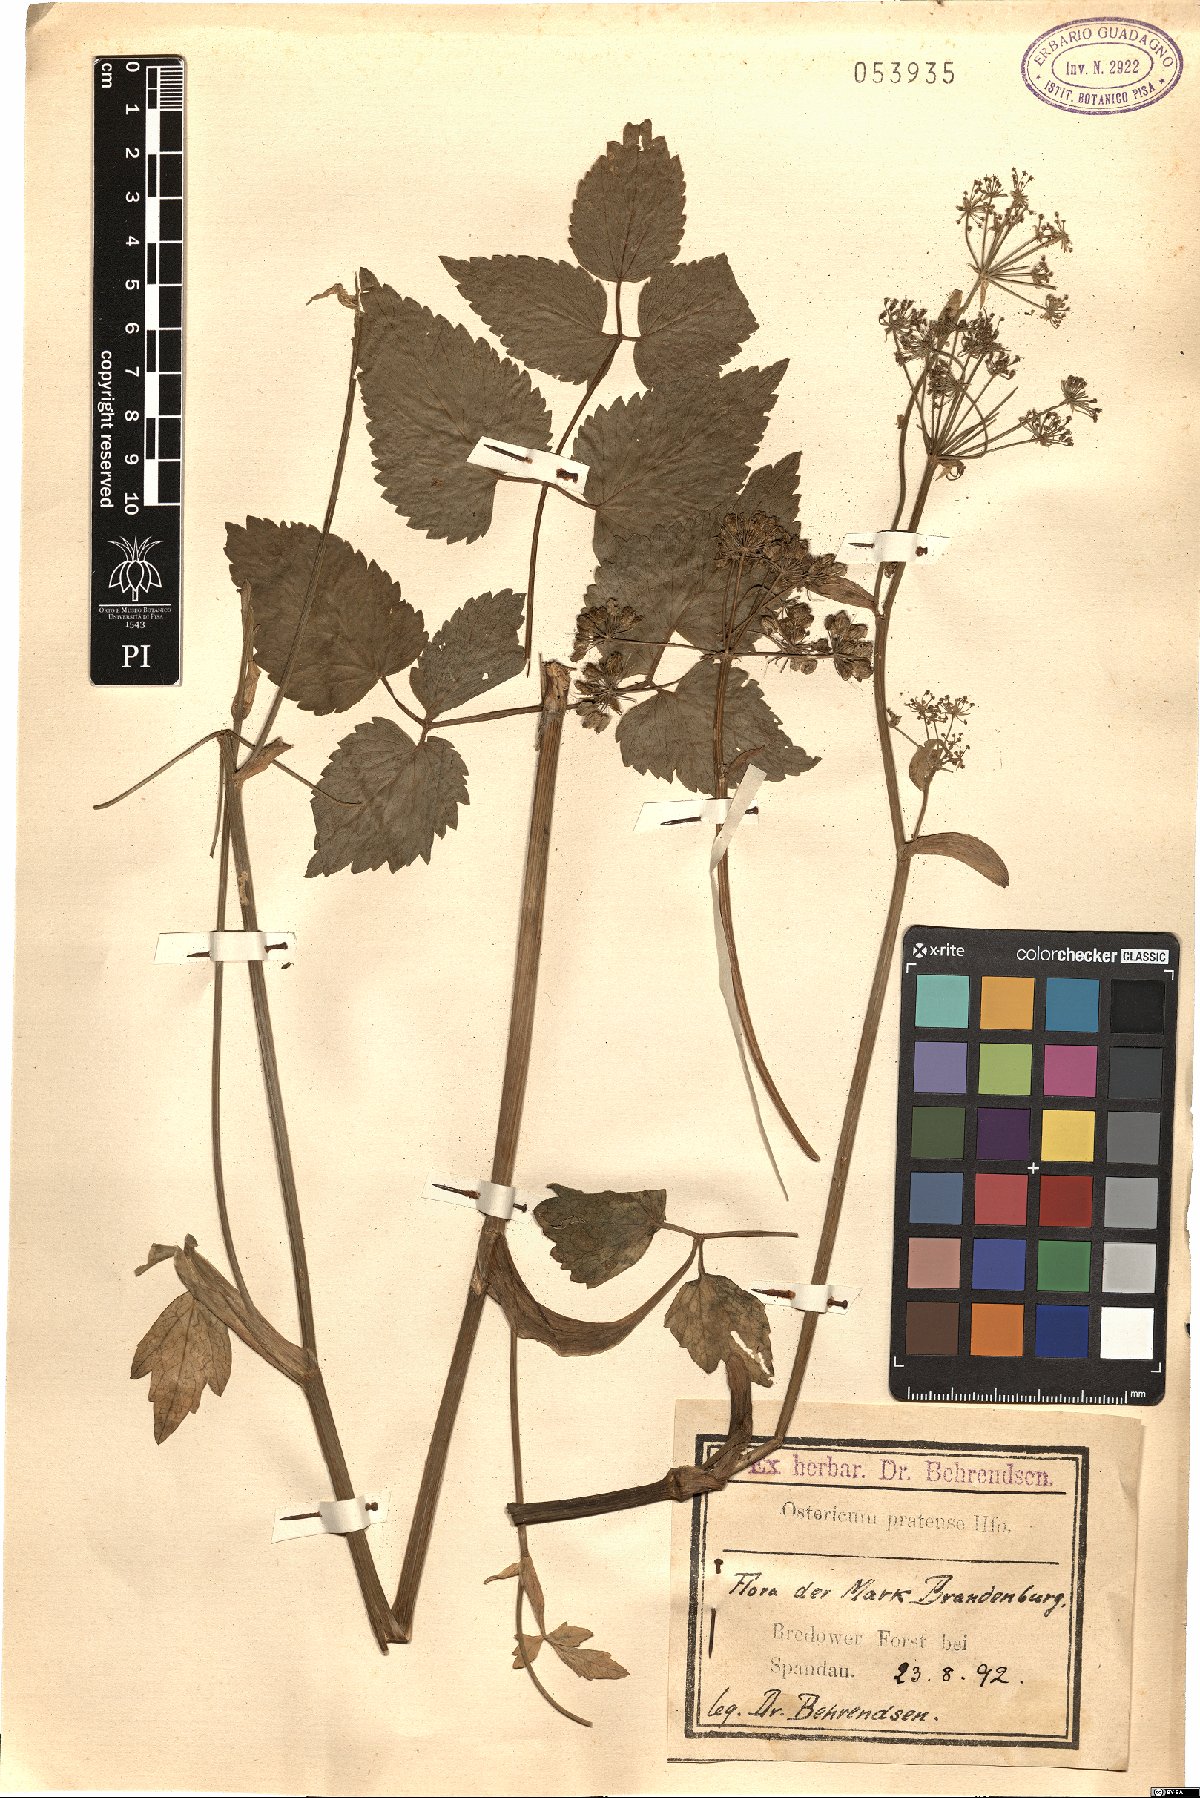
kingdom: Plantae
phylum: Tracheophyta
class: Magnoliopsida
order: Apiales
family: Apiaceae
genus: Ostericum
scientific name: Ostericum palustre
